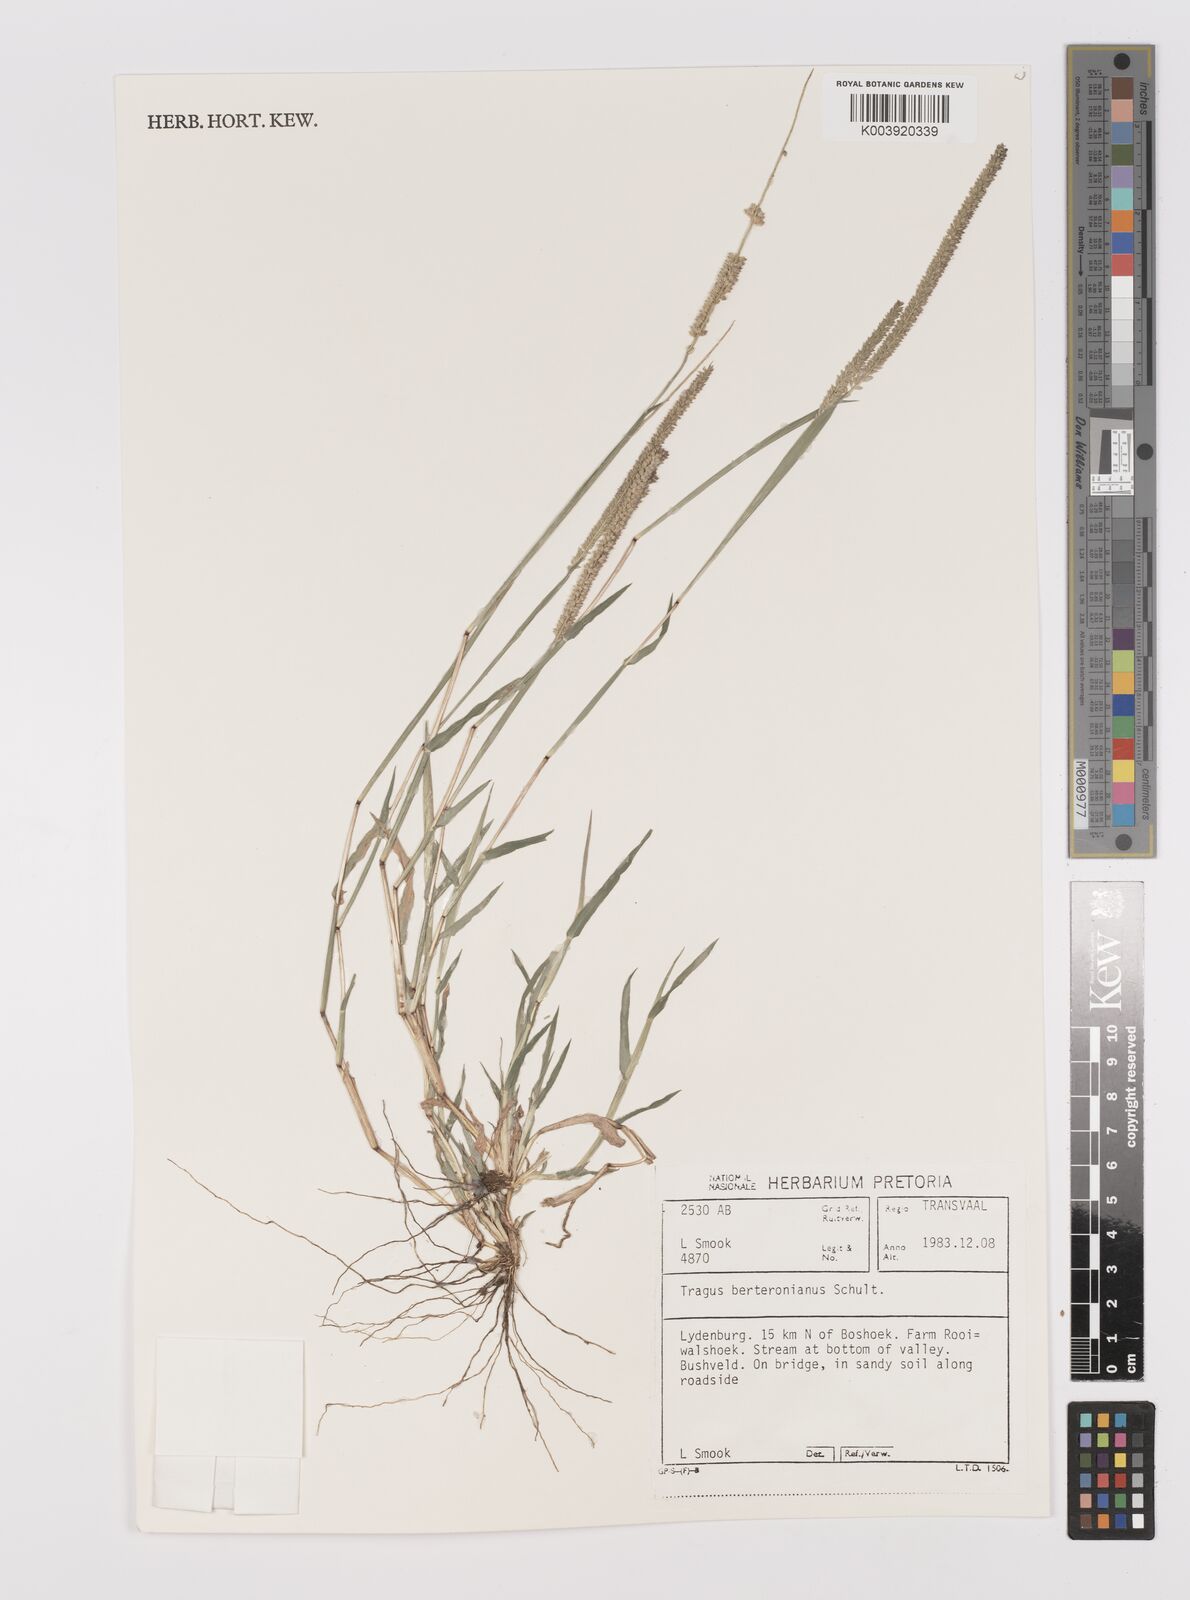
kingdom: Plantae
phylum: Tracheophyta
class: Liliopsida
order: Poales
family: Poaceae
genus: Tragus
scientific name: Tragus berteronianus
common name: African bur-grass
